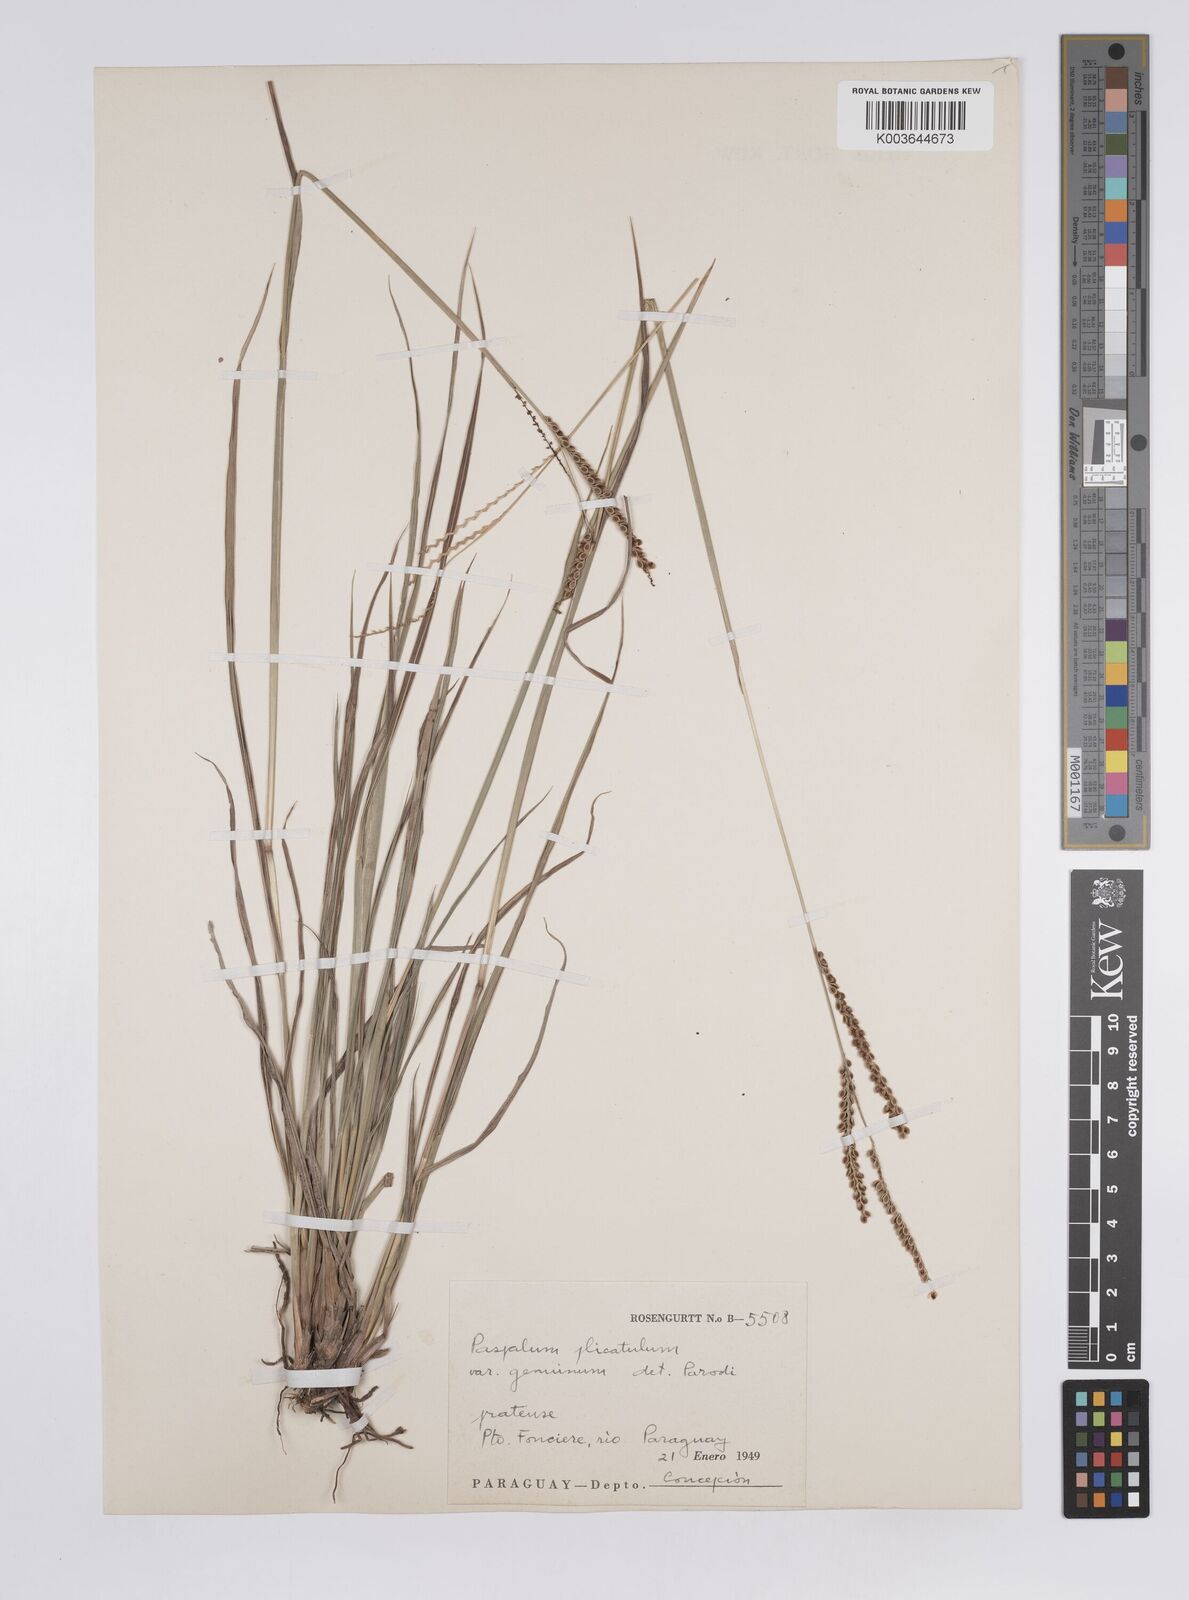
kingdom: Plantae
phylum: Tracheophyta
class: Liliopsida
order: Poales
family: Poaceae
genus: Paspalum
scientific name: Paspalum plicatulum
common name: Top paspalum
